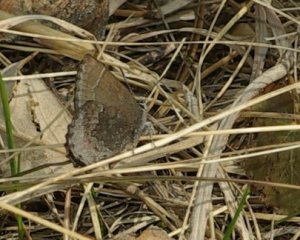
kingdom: Animalia
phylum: Arthropoda
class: Insecta
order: Lepidoptera
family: Lycaenidae
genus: Callophrys
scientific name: Callophrys polios
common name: Hoary Elfin
